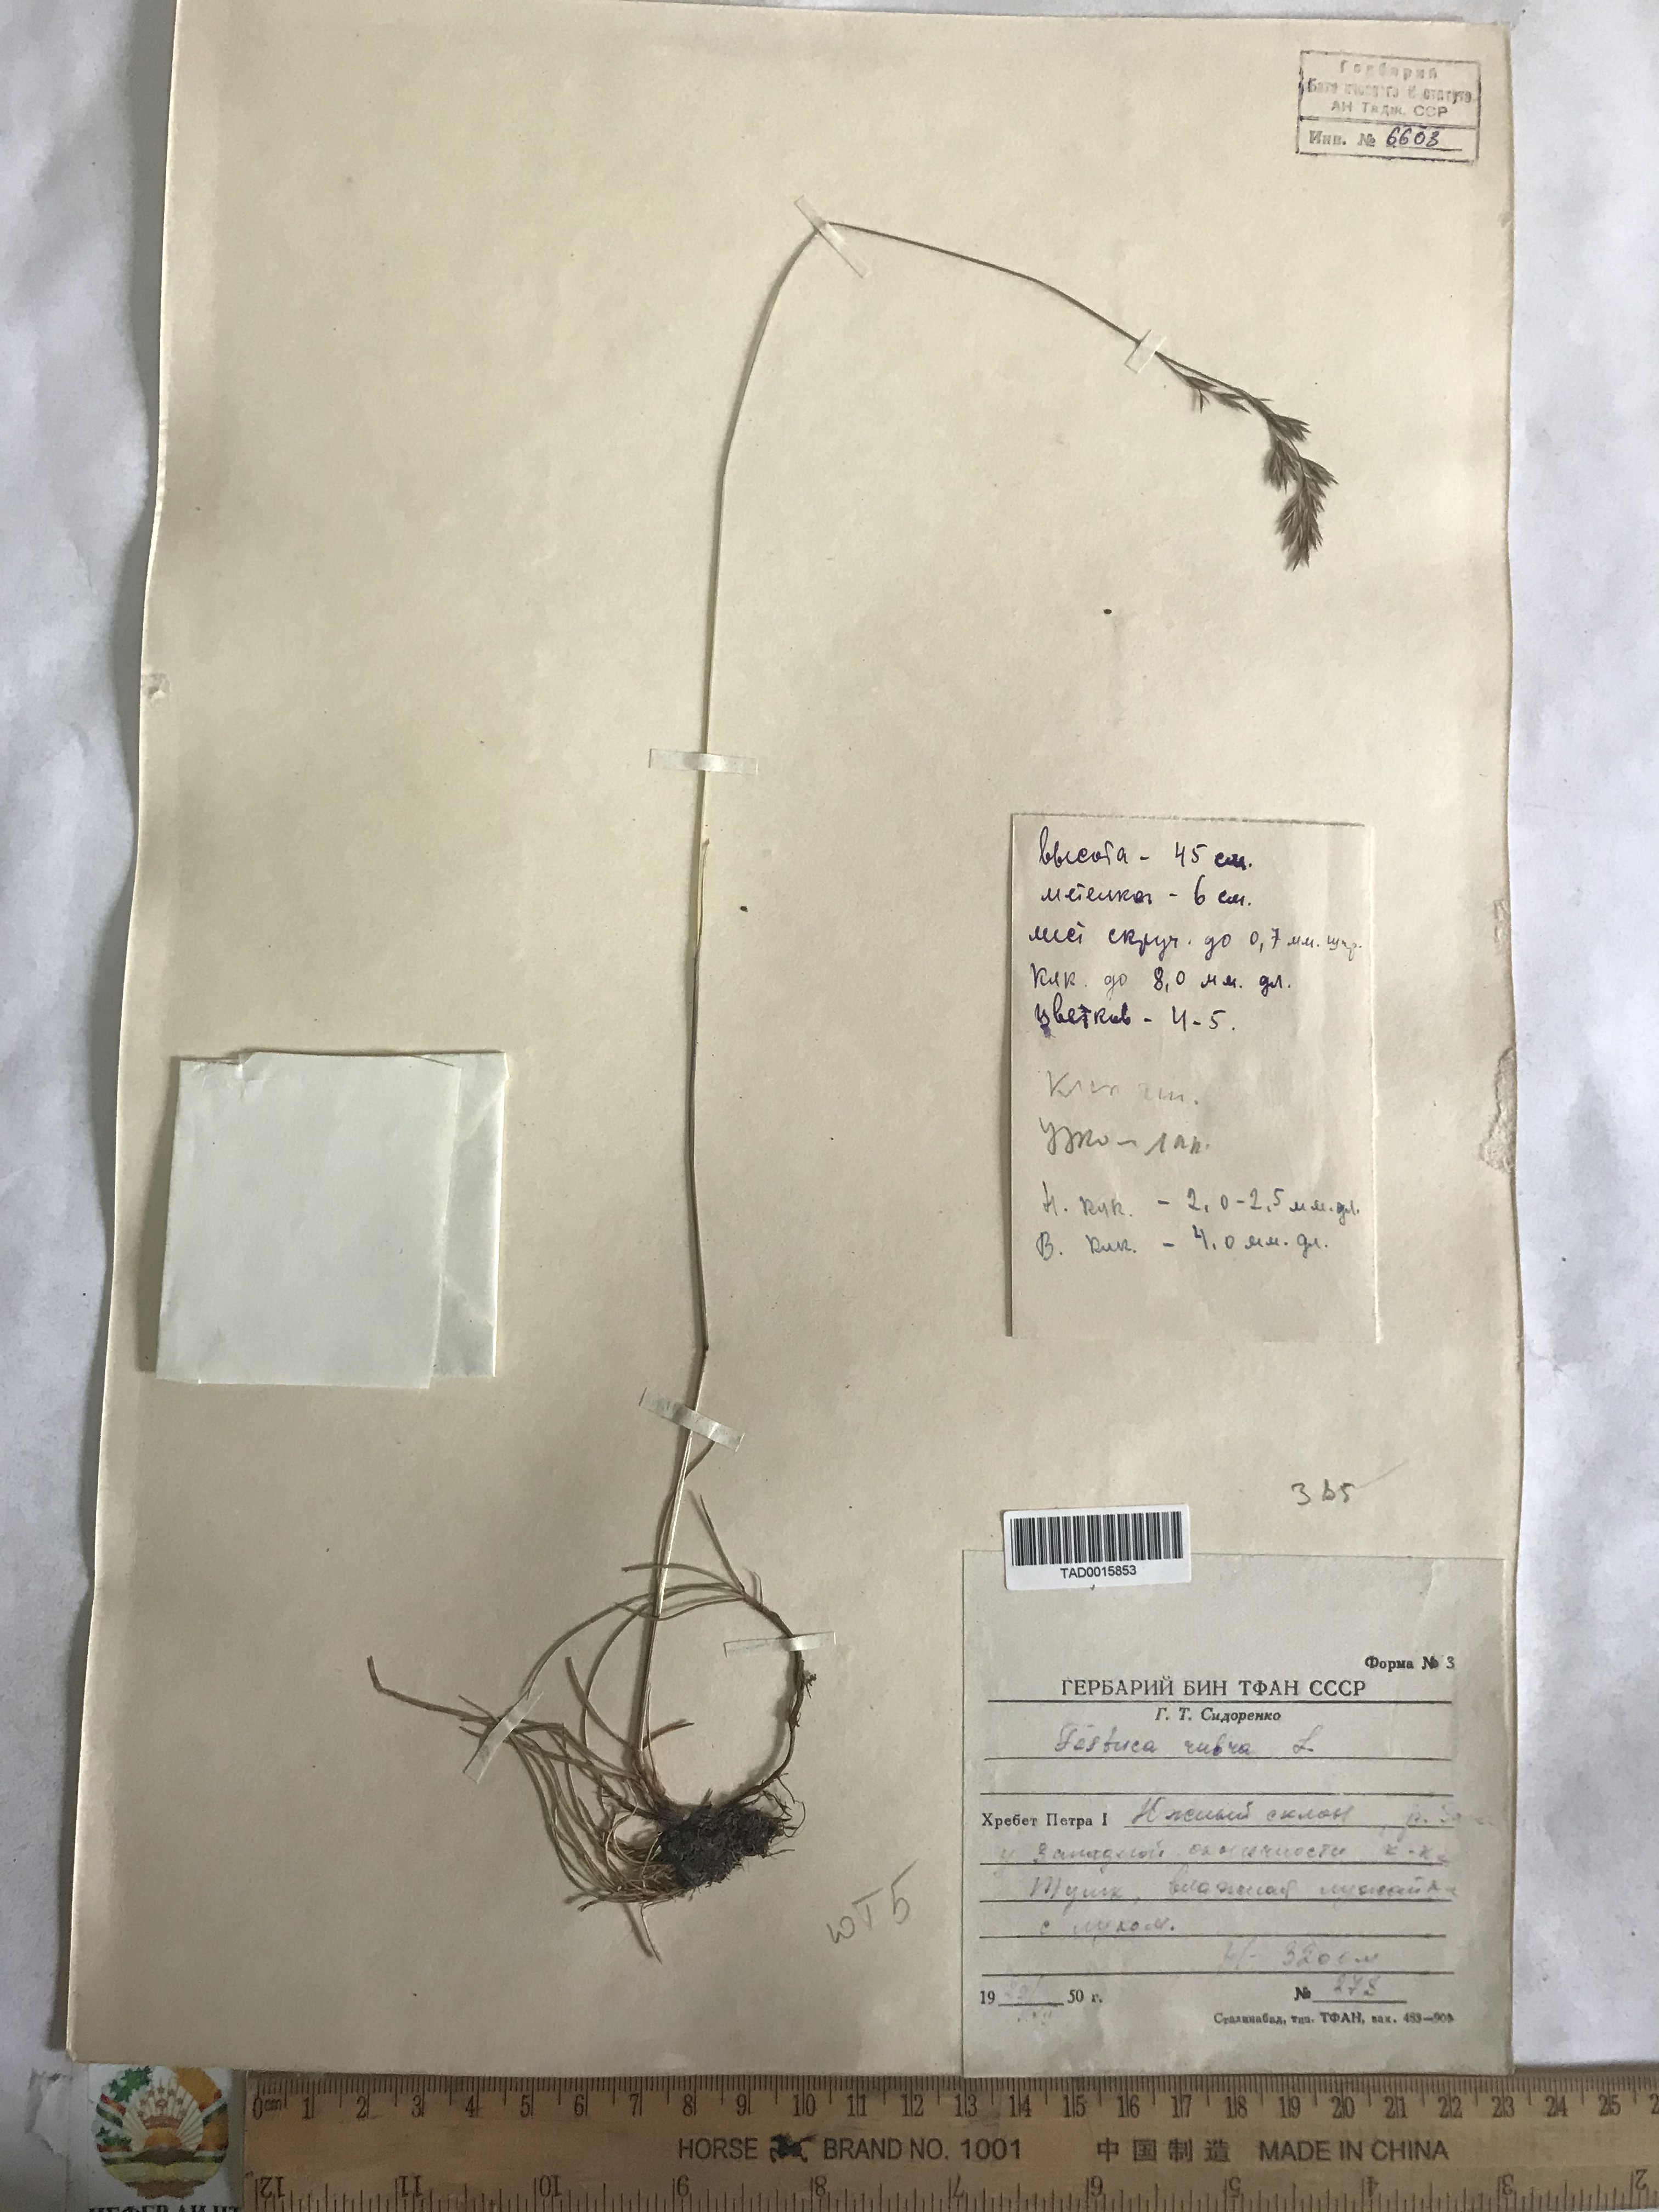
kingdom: Plantae
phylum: Tracheophyta
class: Liliopsida
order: Poales
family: Poaceae
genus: Festuca
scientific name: Festuca rubra
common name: Red fescue
